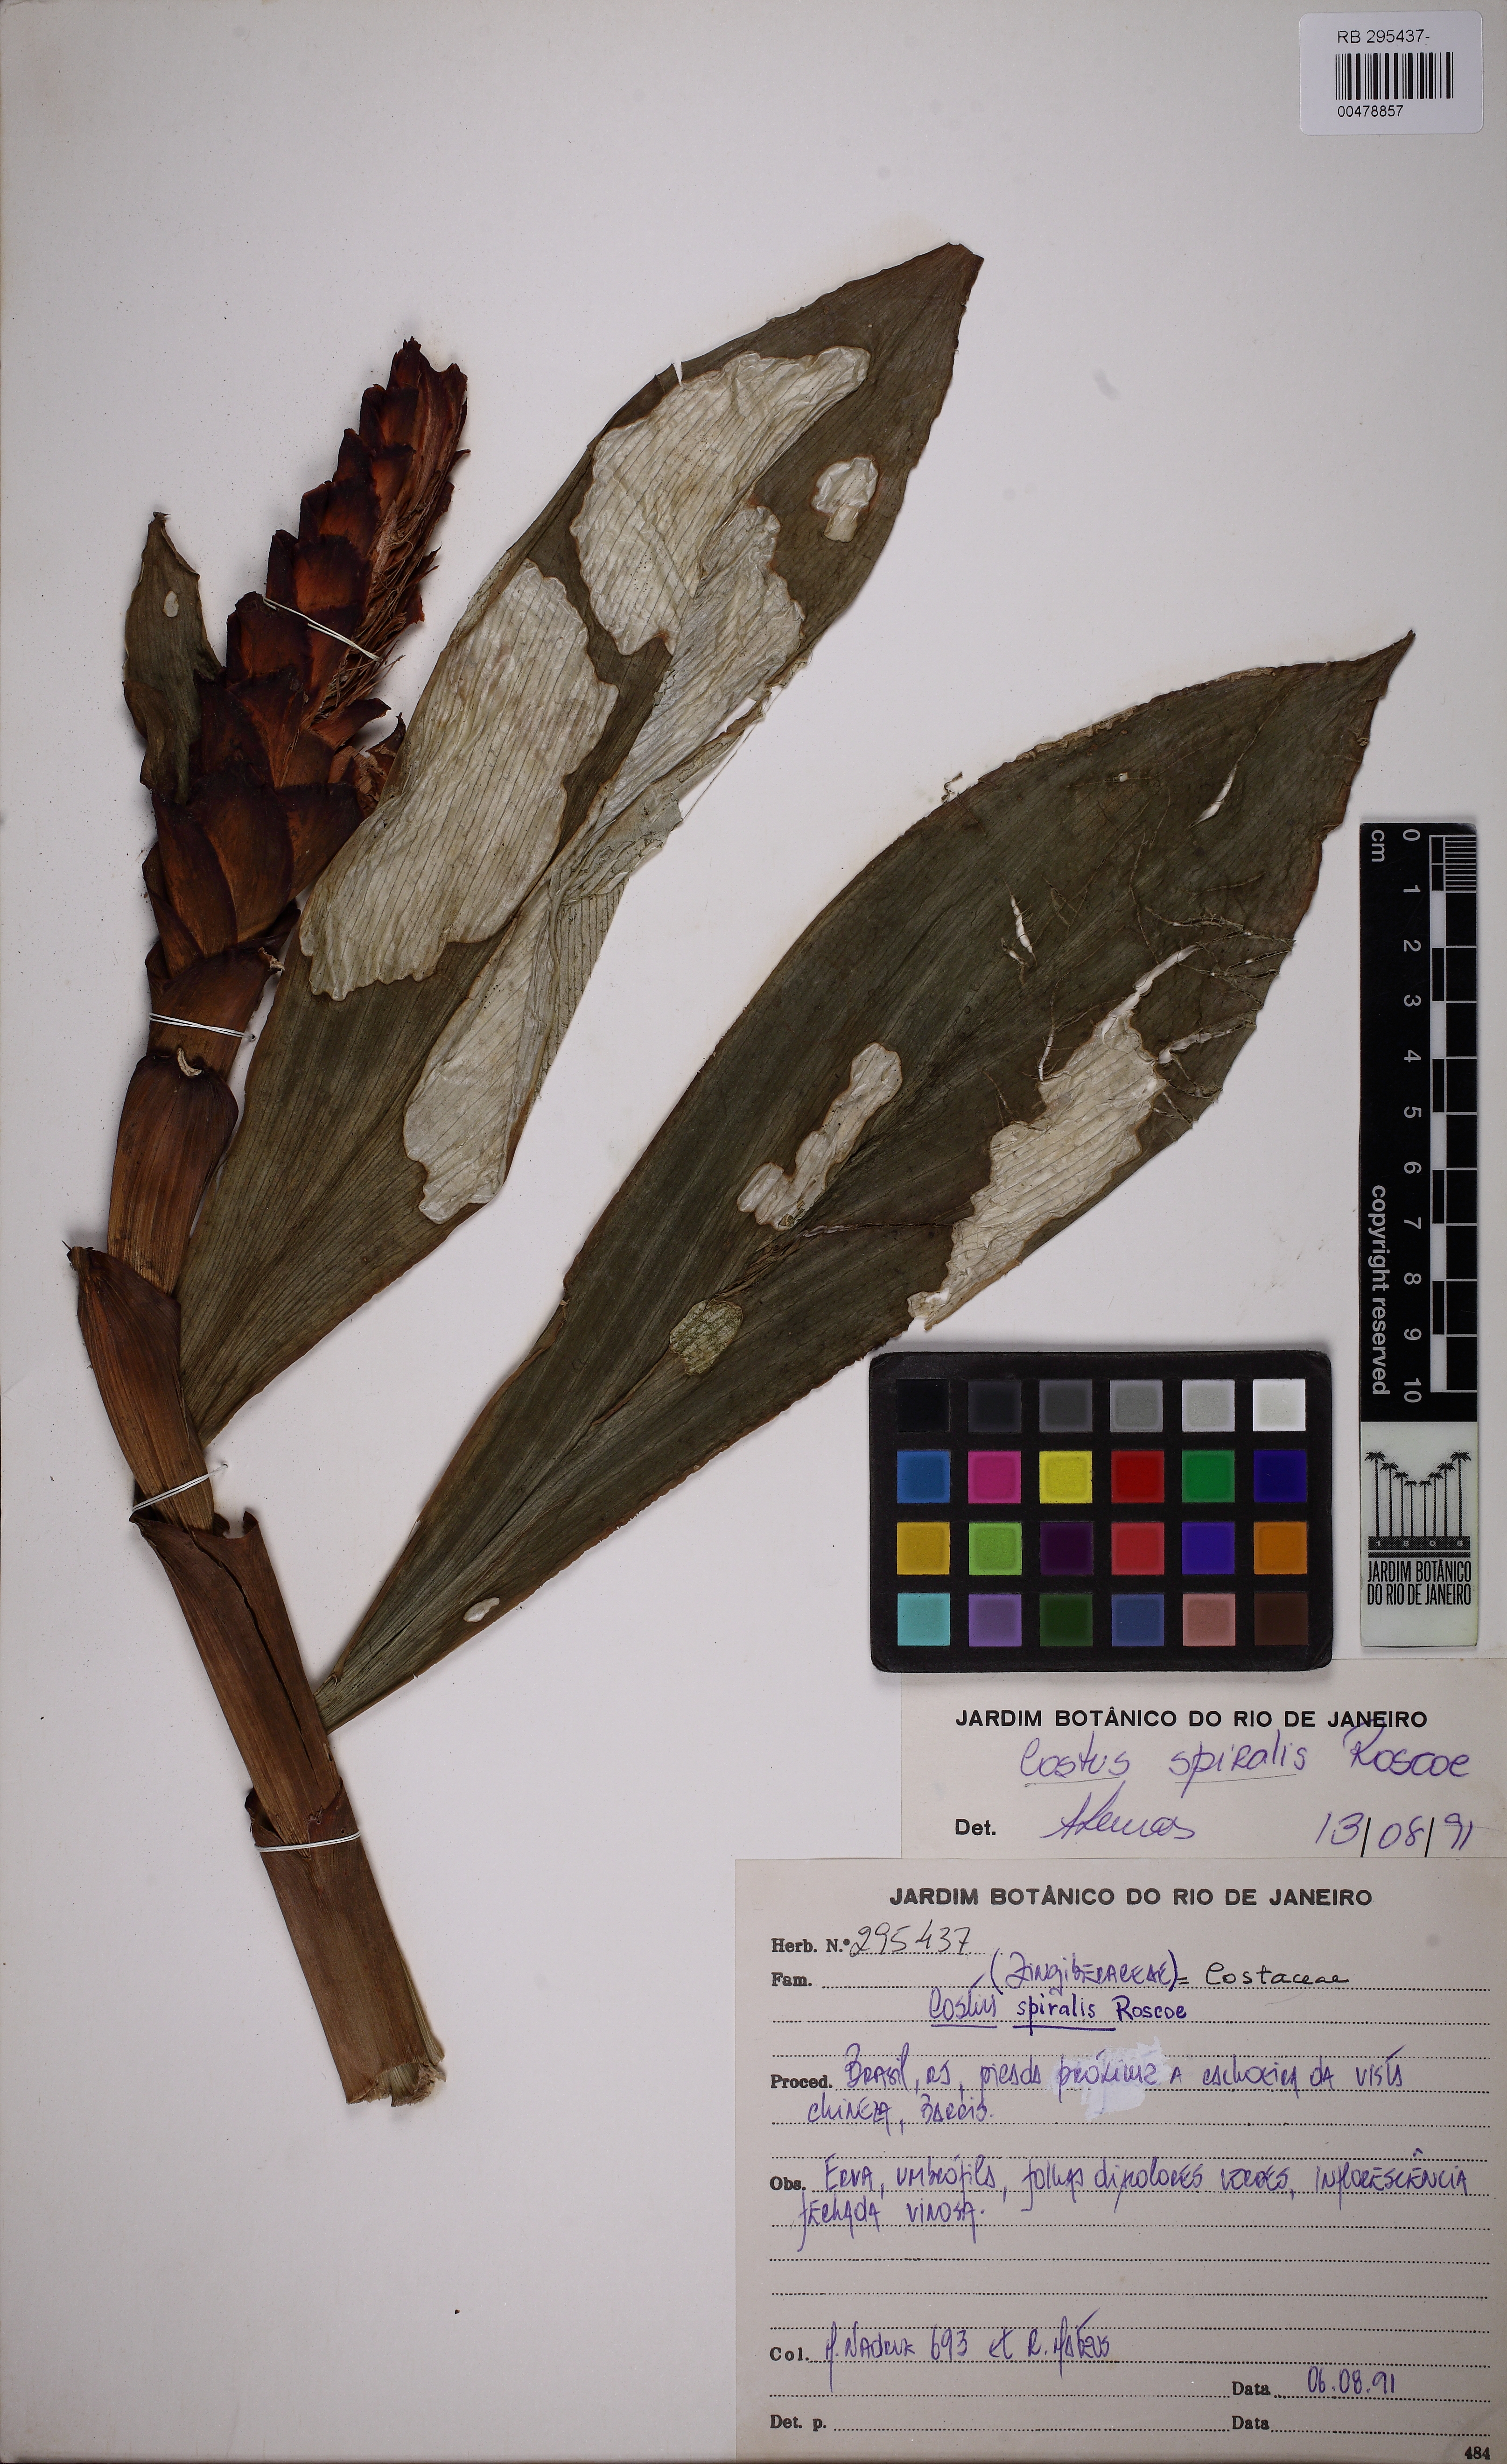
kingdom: Plantae
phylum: Tracheophyta
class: Liliopsida
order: Zingiberales
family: Costaceae
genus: Costus
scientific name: Costus spiralis
